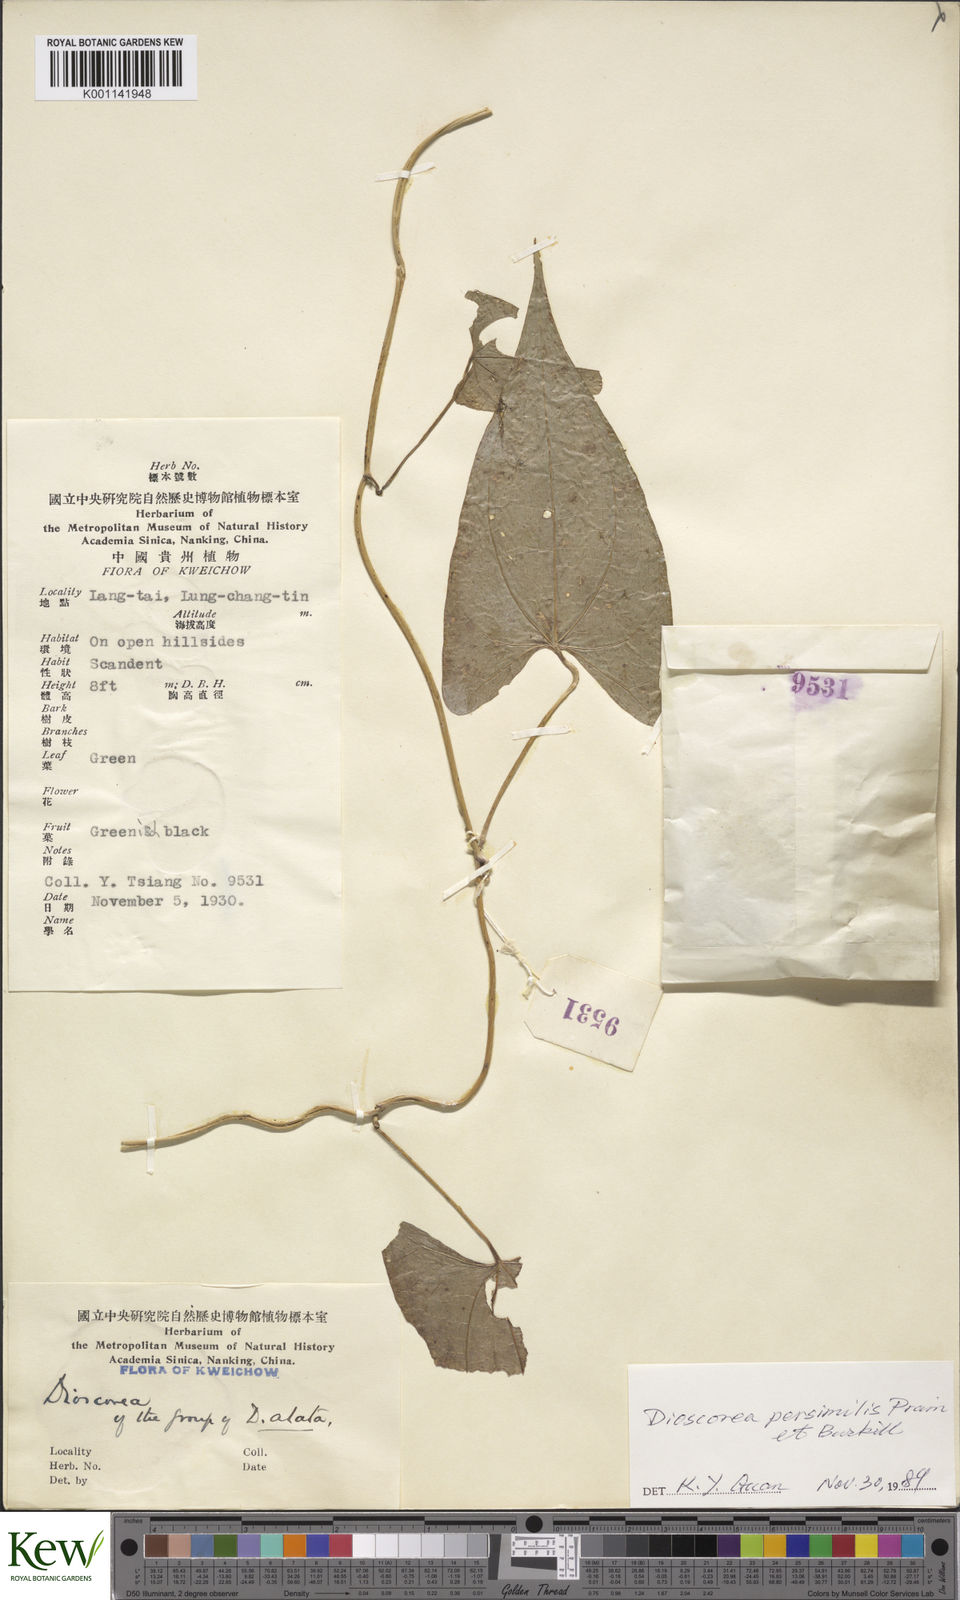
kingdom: Plantae
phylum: Tracheophyta
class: Liliopsida
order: Dioscoreales
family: Dioscoreaceae
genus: Dioscorea
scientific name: Dioscorea hamiltonii
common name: Mountain yam
